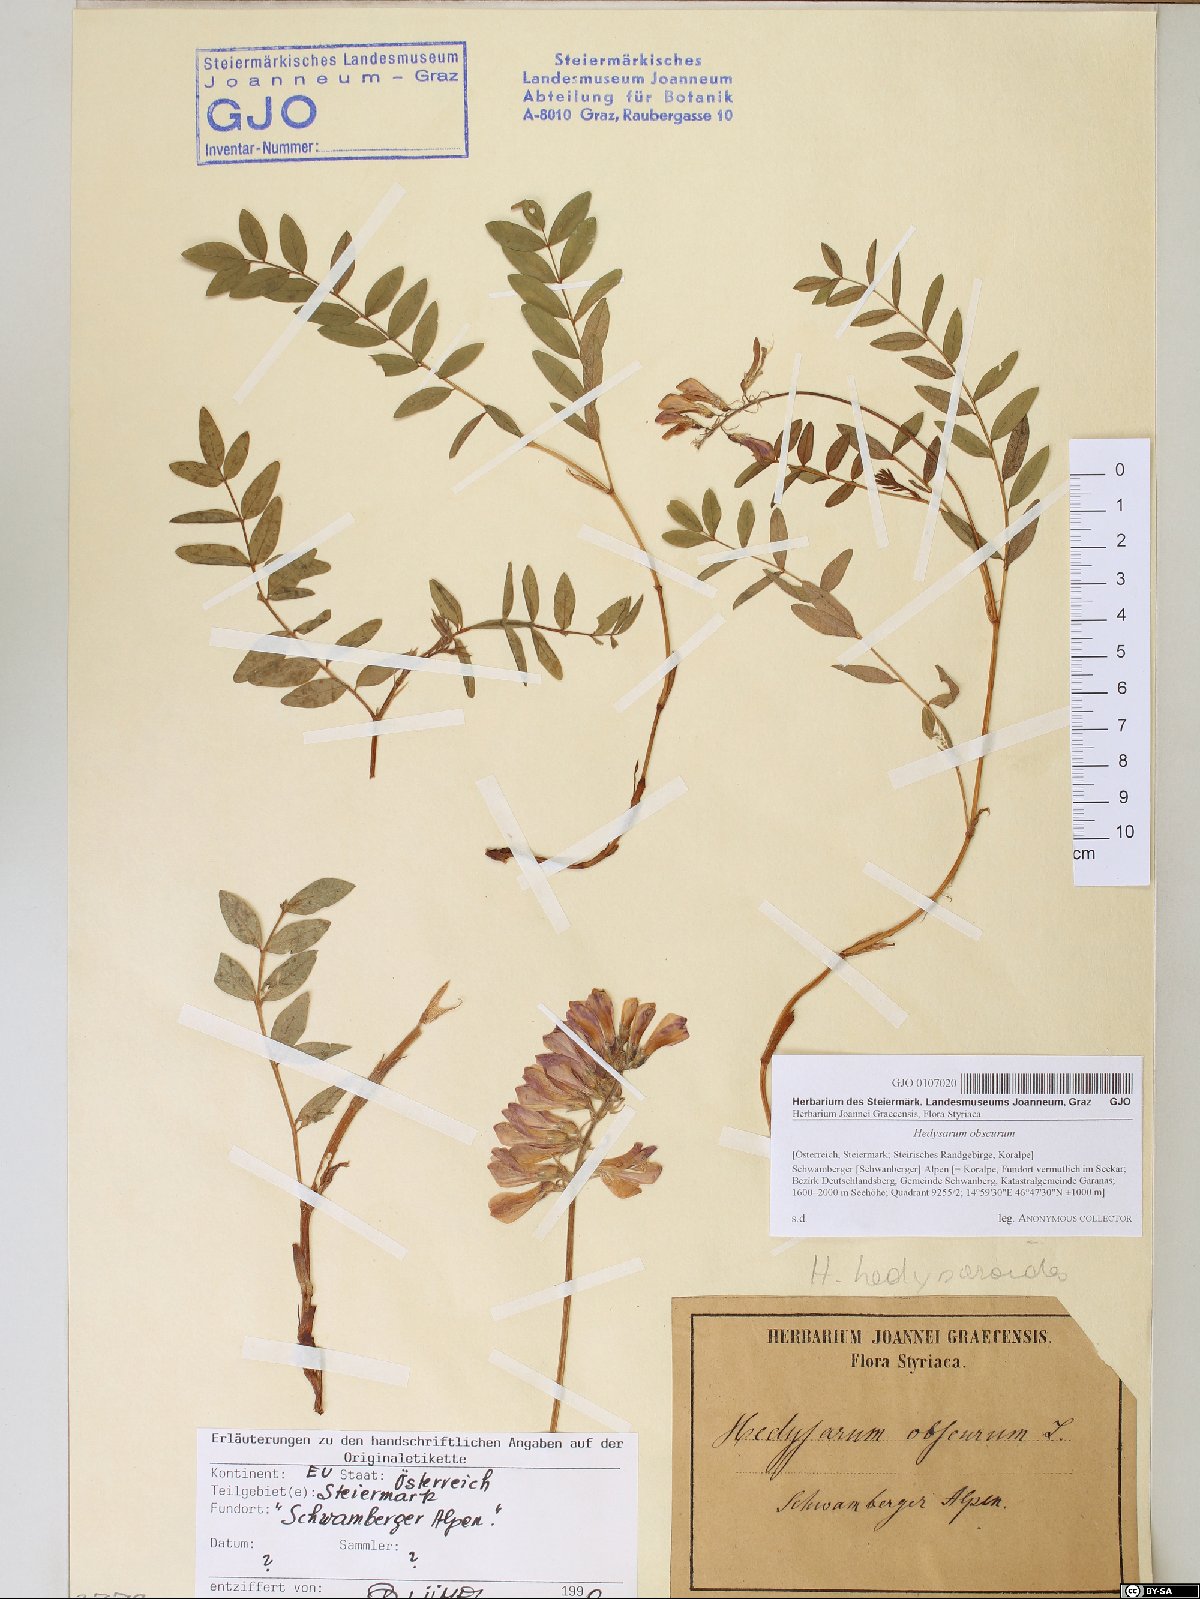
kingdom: Plantae
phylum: Tracheophyta
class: Magnoliopsida
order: Fabales
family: Fabaceae
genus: Hedysarum
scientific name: Hedysarum hedysaroides
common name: Alpine french-honeysuckle
